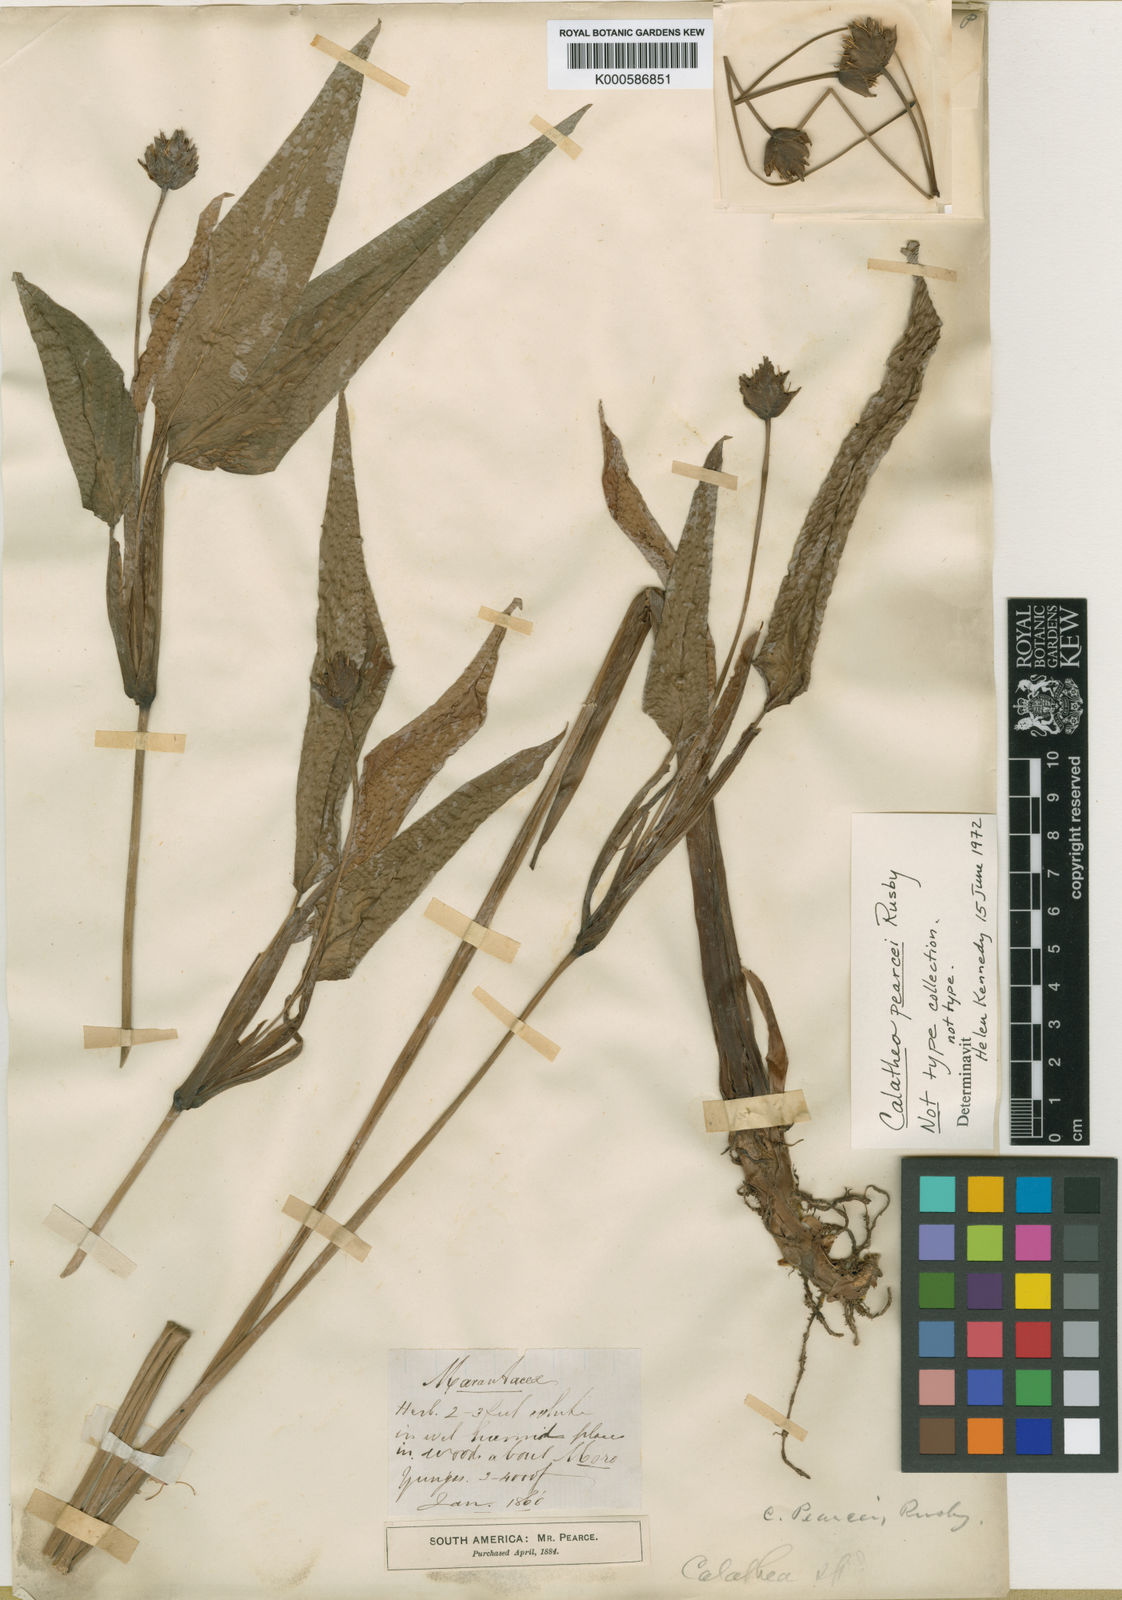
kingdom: Plantae
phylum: Tracheophyta
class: Liliopsida
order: Zingiberales
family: Marantaceae
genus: Goeppertia
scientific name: Goeppertia pearcei
